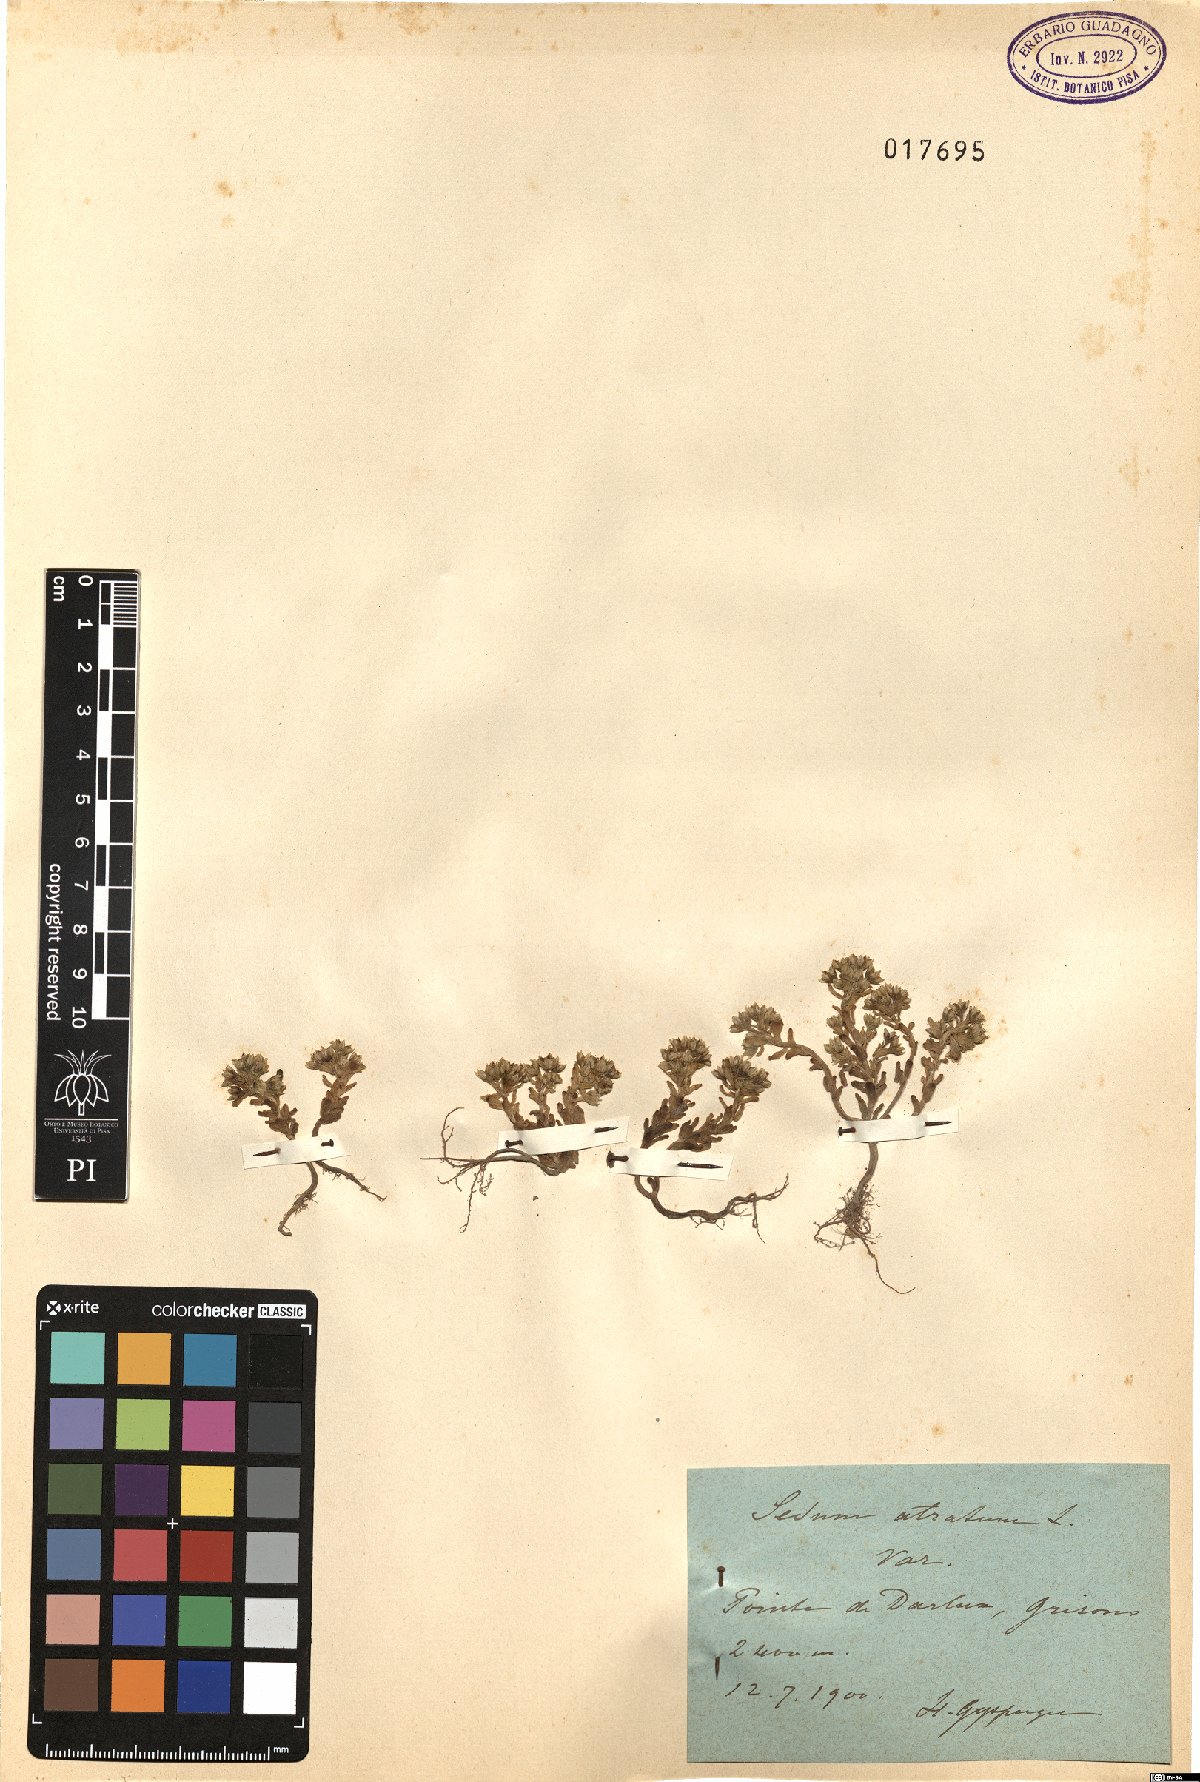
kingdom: Plantae
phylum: Tracheophyta
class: Magnoliopsida
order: Saxifragales
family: Crassulaceae
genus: Sedum
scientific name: Sedum atratum
